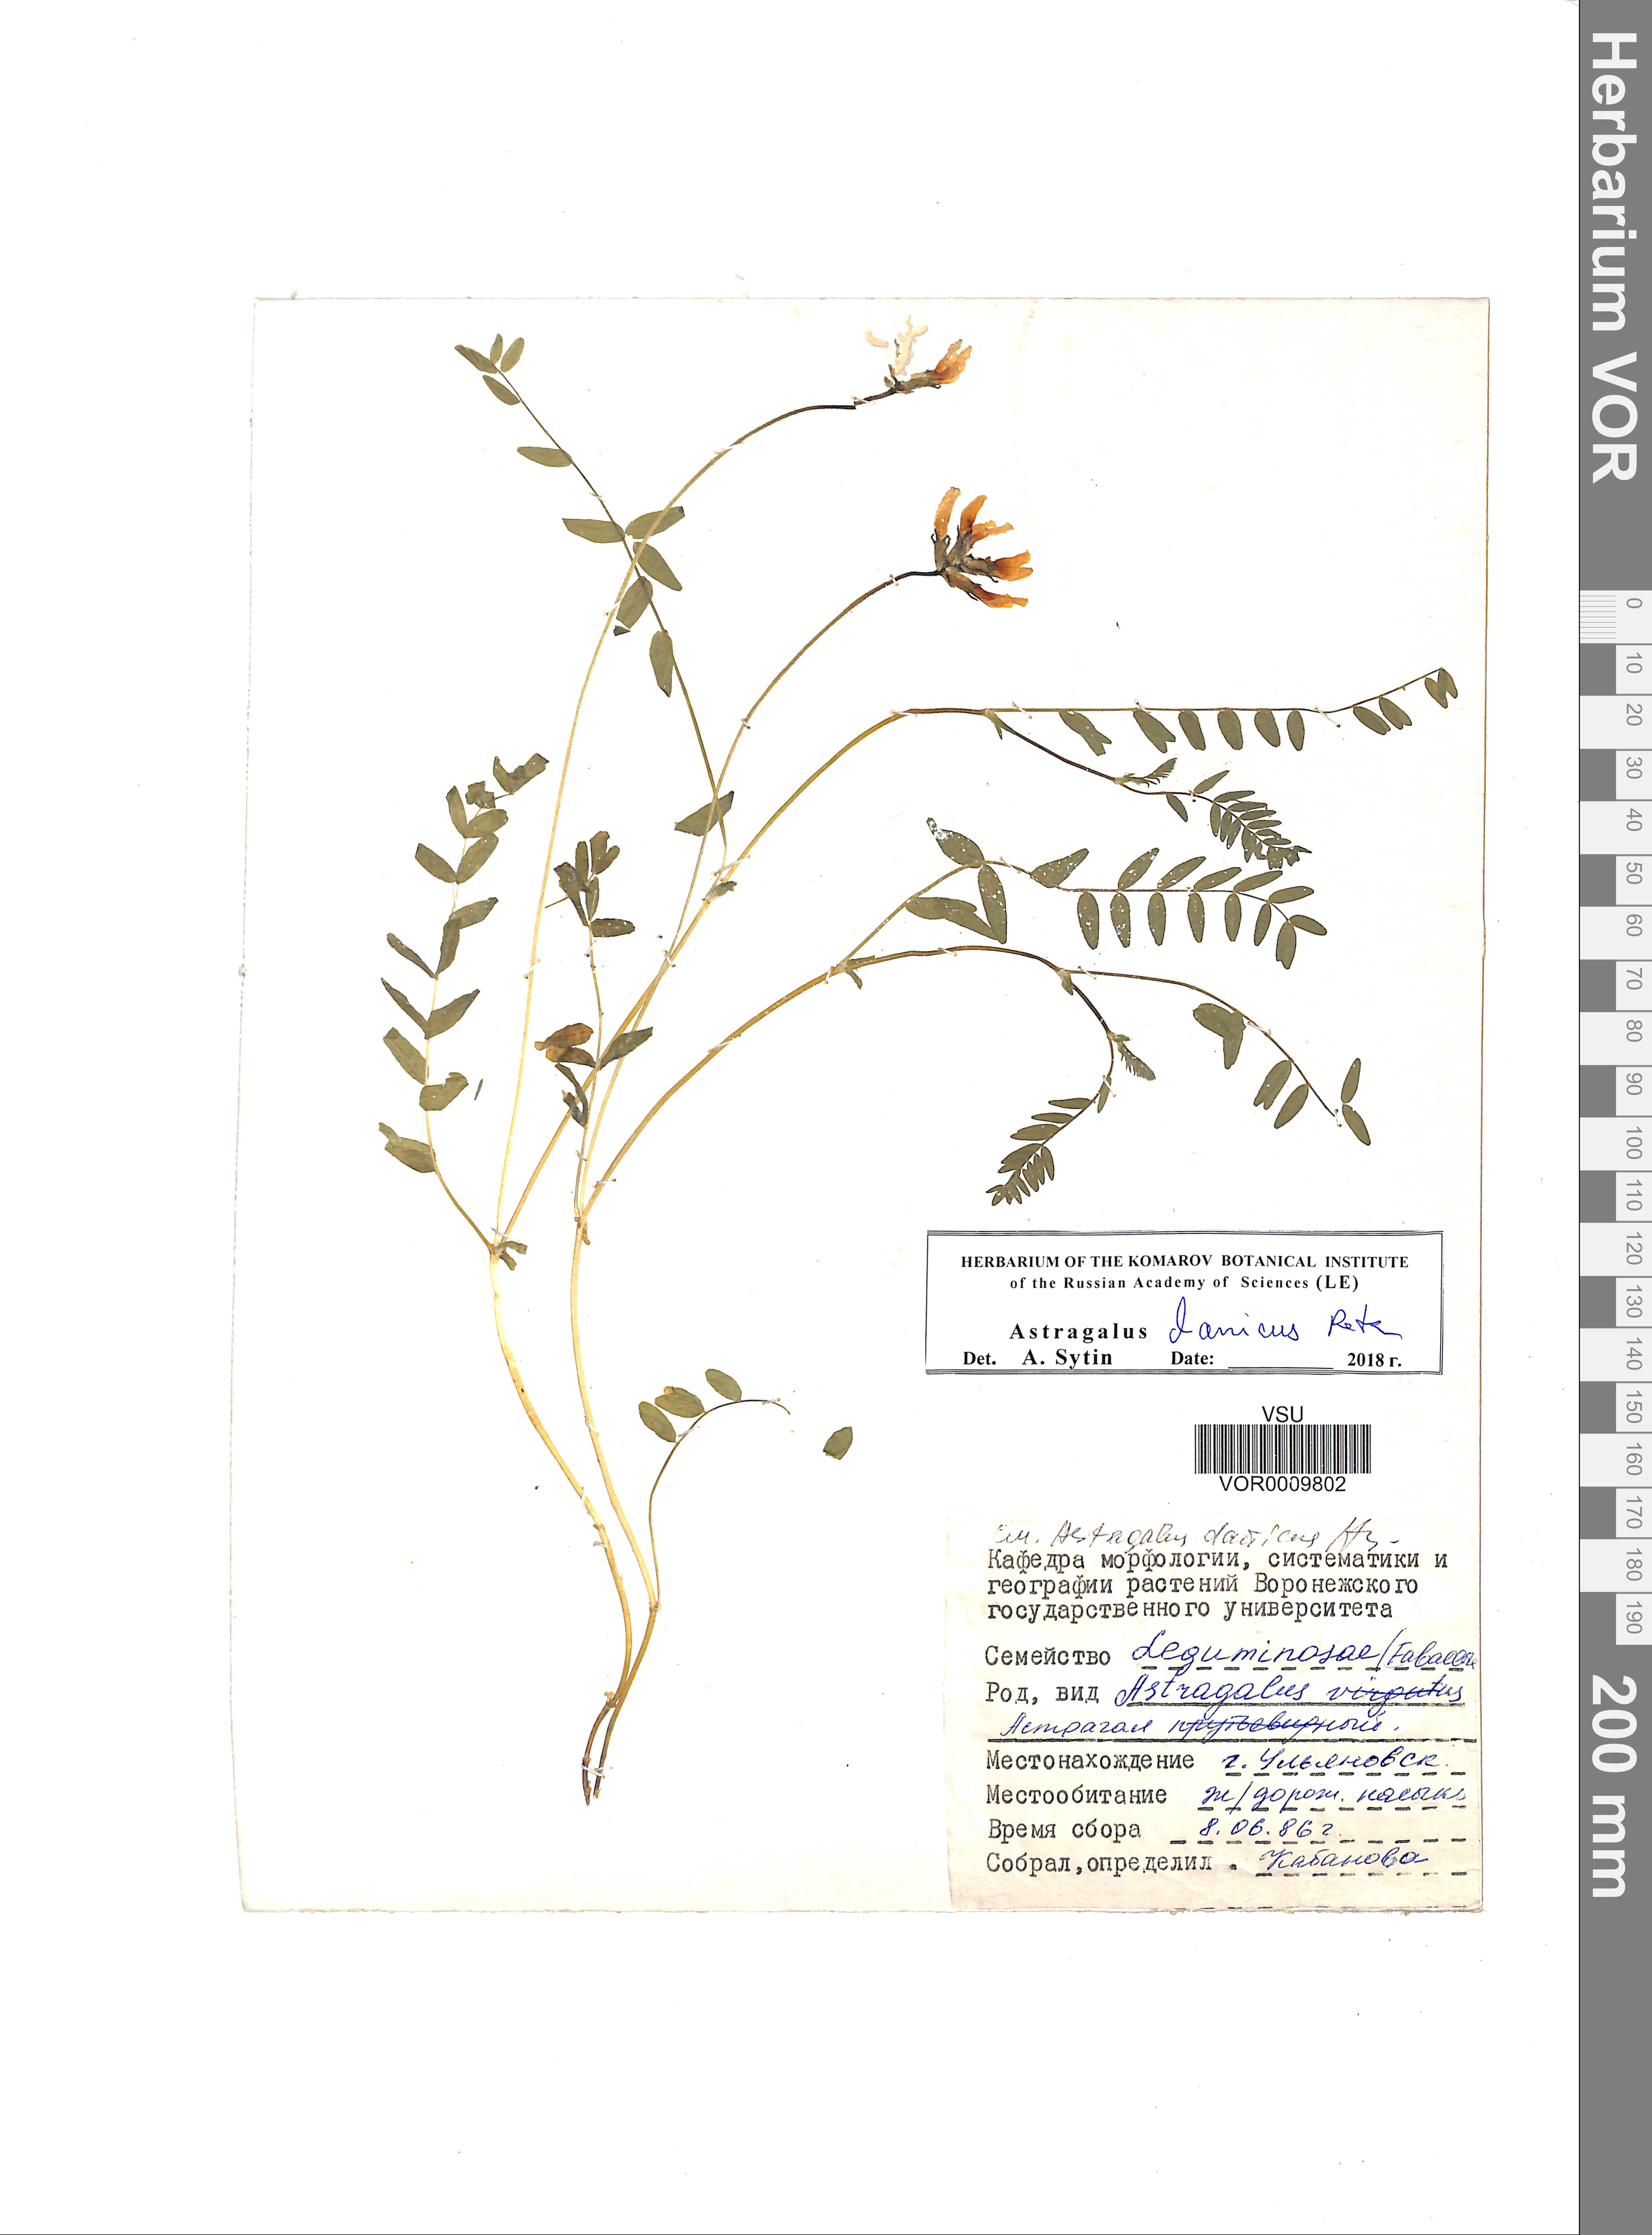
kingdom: Plantae
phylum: Tracheophyta
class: Magnoliopsida
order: Fabales
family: Fabaceae
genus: Astragalus
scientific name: Astragalus danicus
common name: Purple milk-vetch
